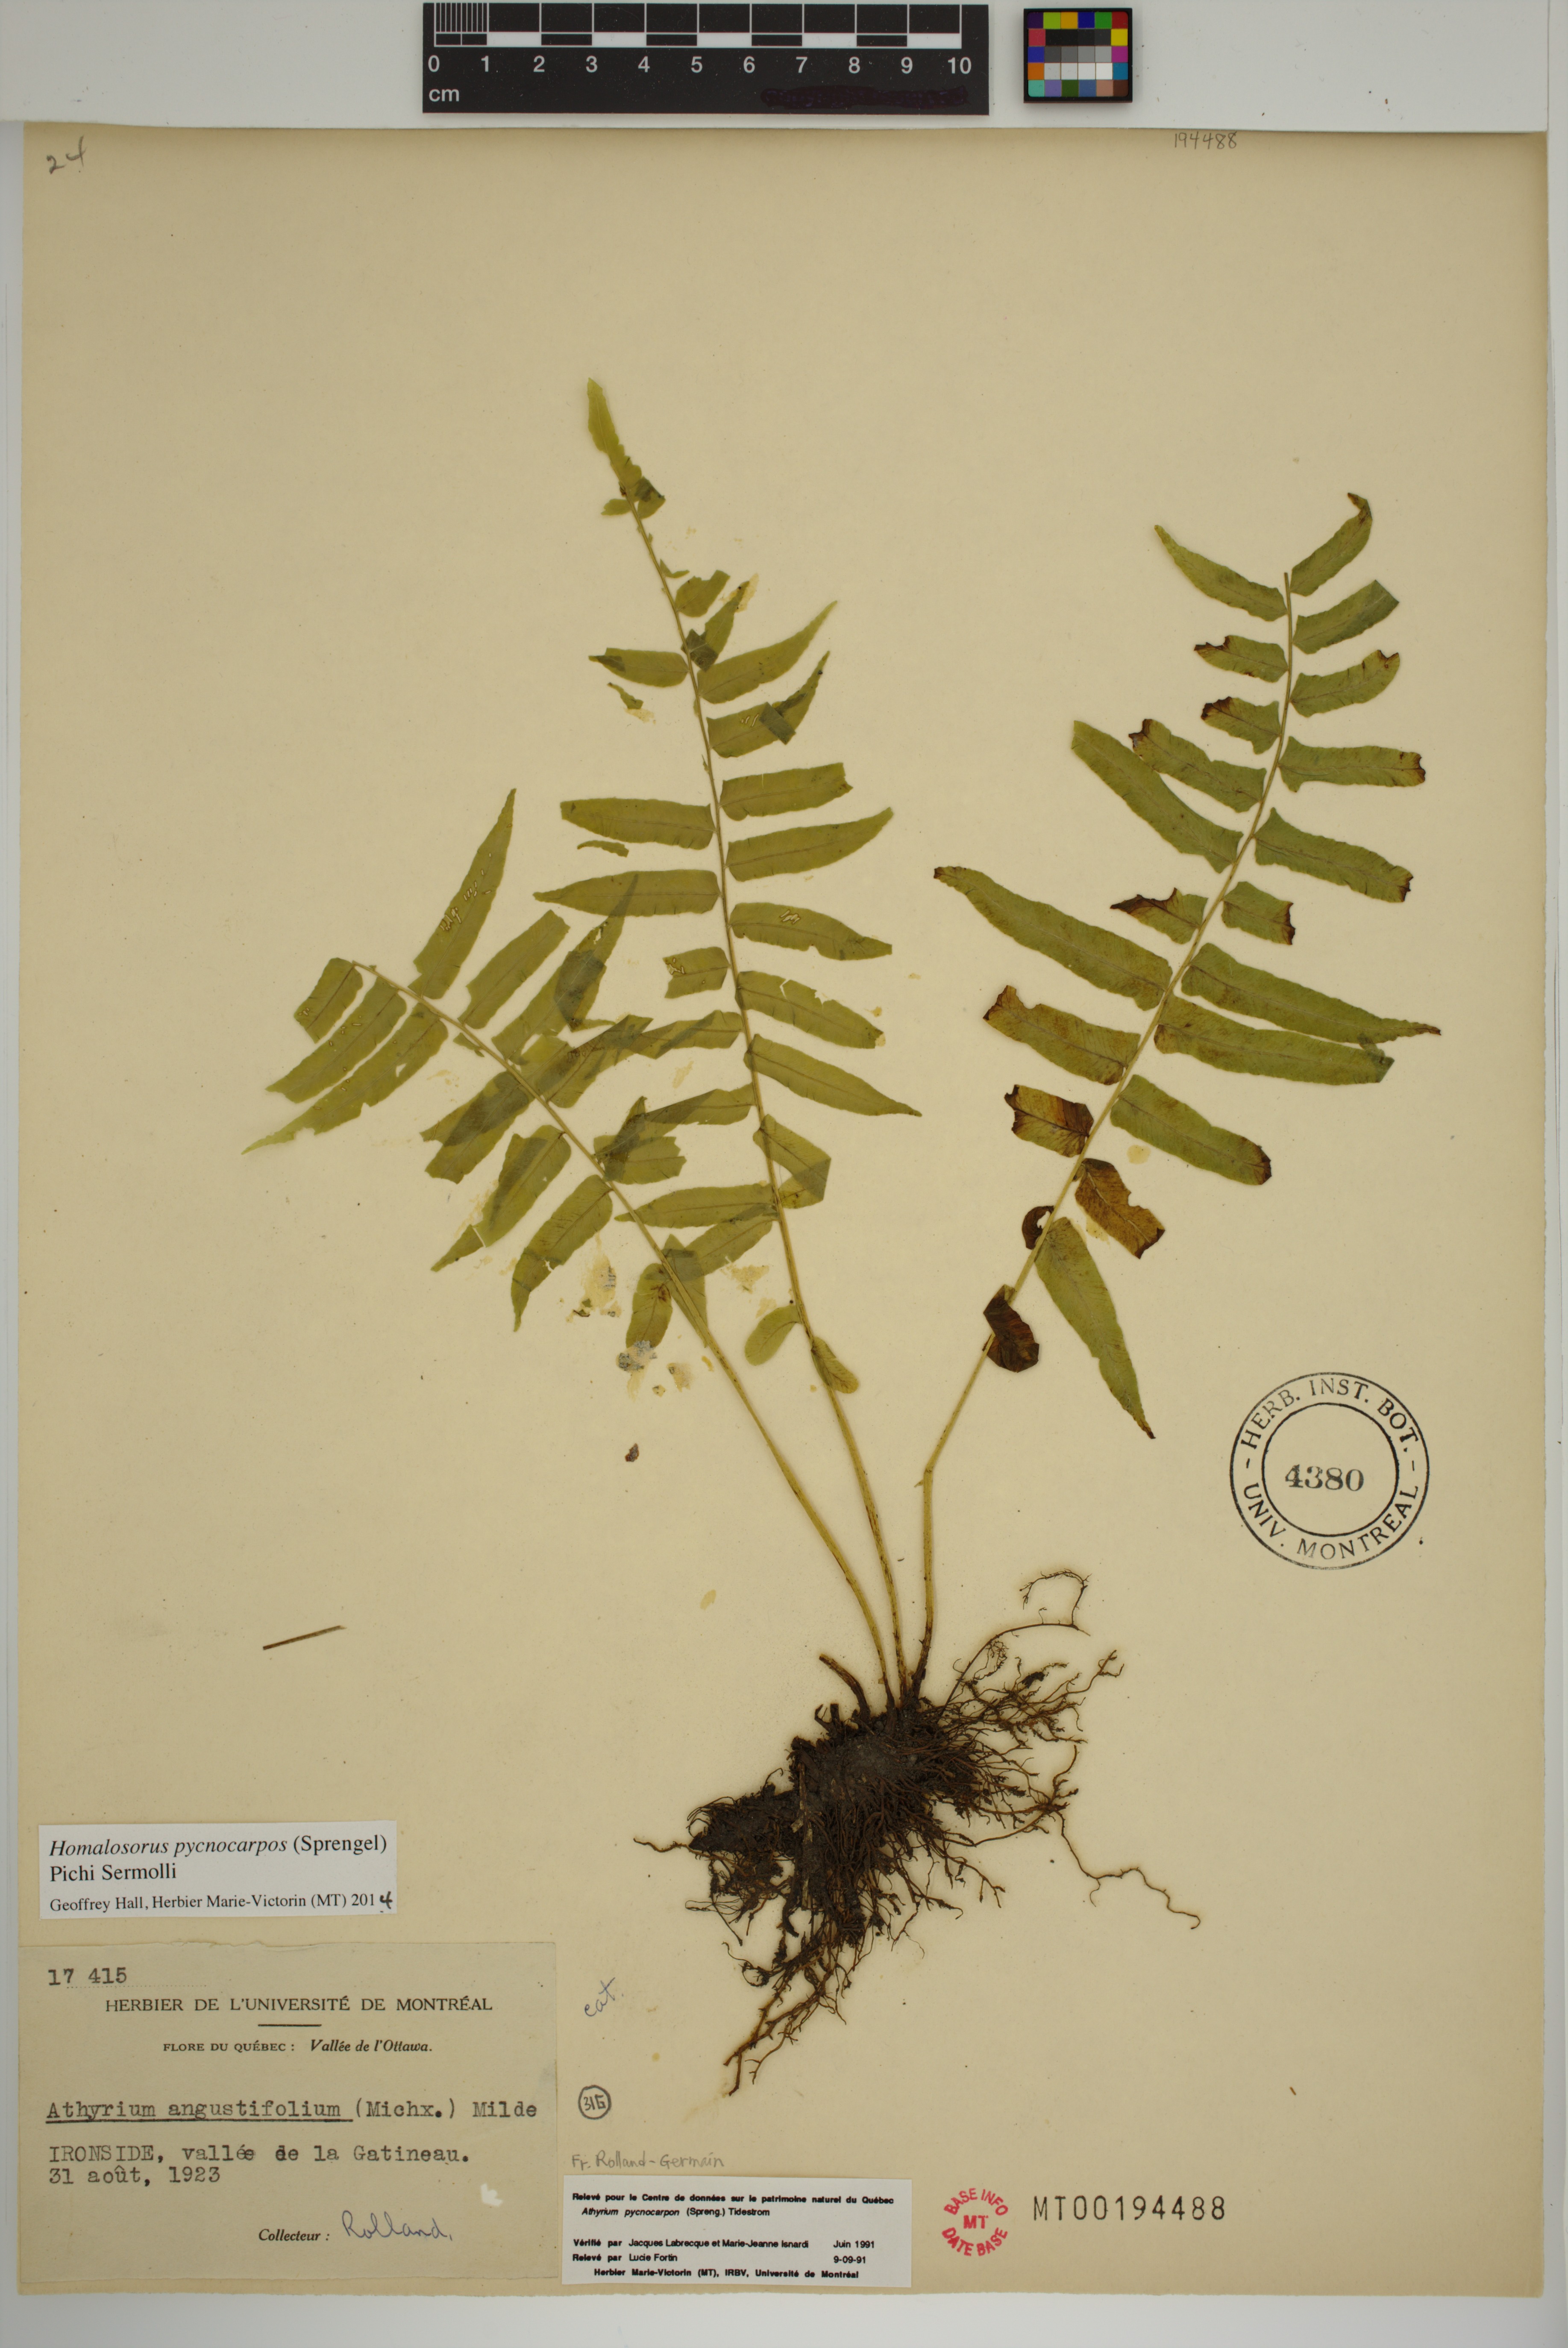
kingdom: Plantae
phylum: Tracheophyta
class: Polypodiopsida
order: Polypodiales
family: Diplaziopsidaceae
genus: Homalosorus
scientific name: Homalosorus pycnocarpos
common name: Glade fern
